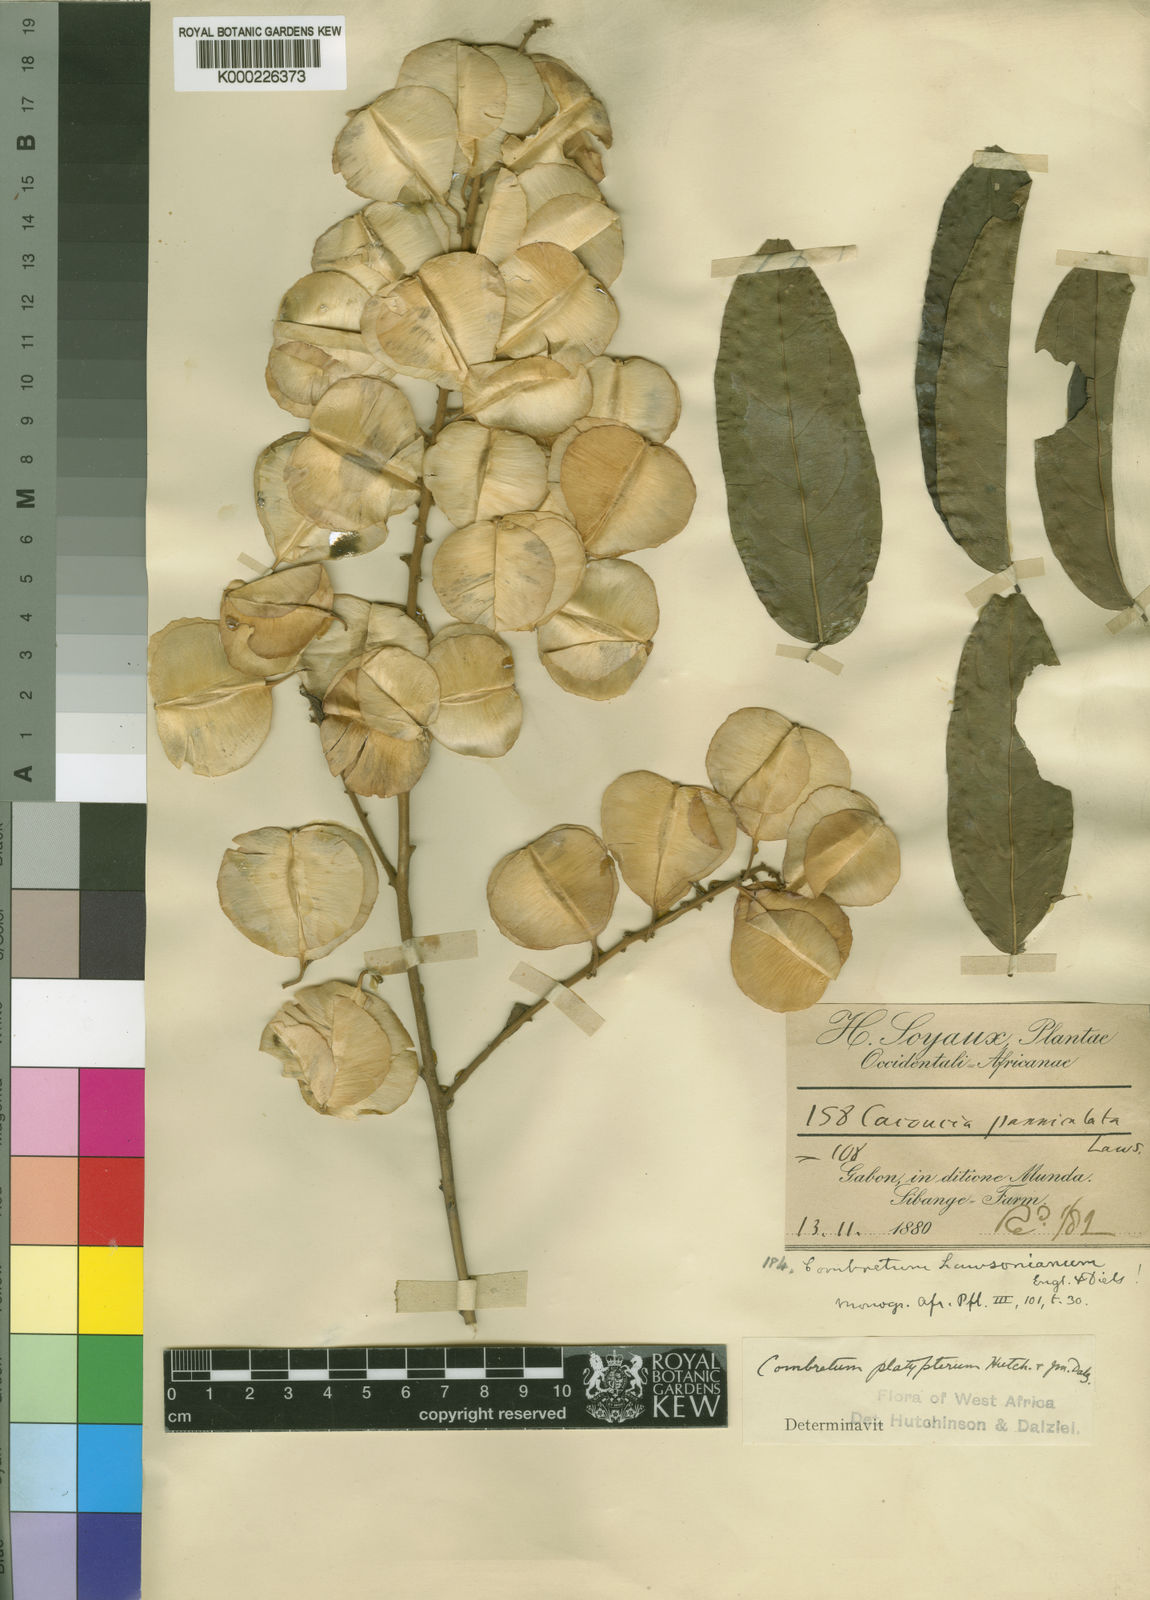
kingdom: Plantae
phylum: Tracheophyta
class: Magnoliopsida
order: Myrtales
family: Combretaceae
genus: Combretum
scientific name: Combretum platypterum
